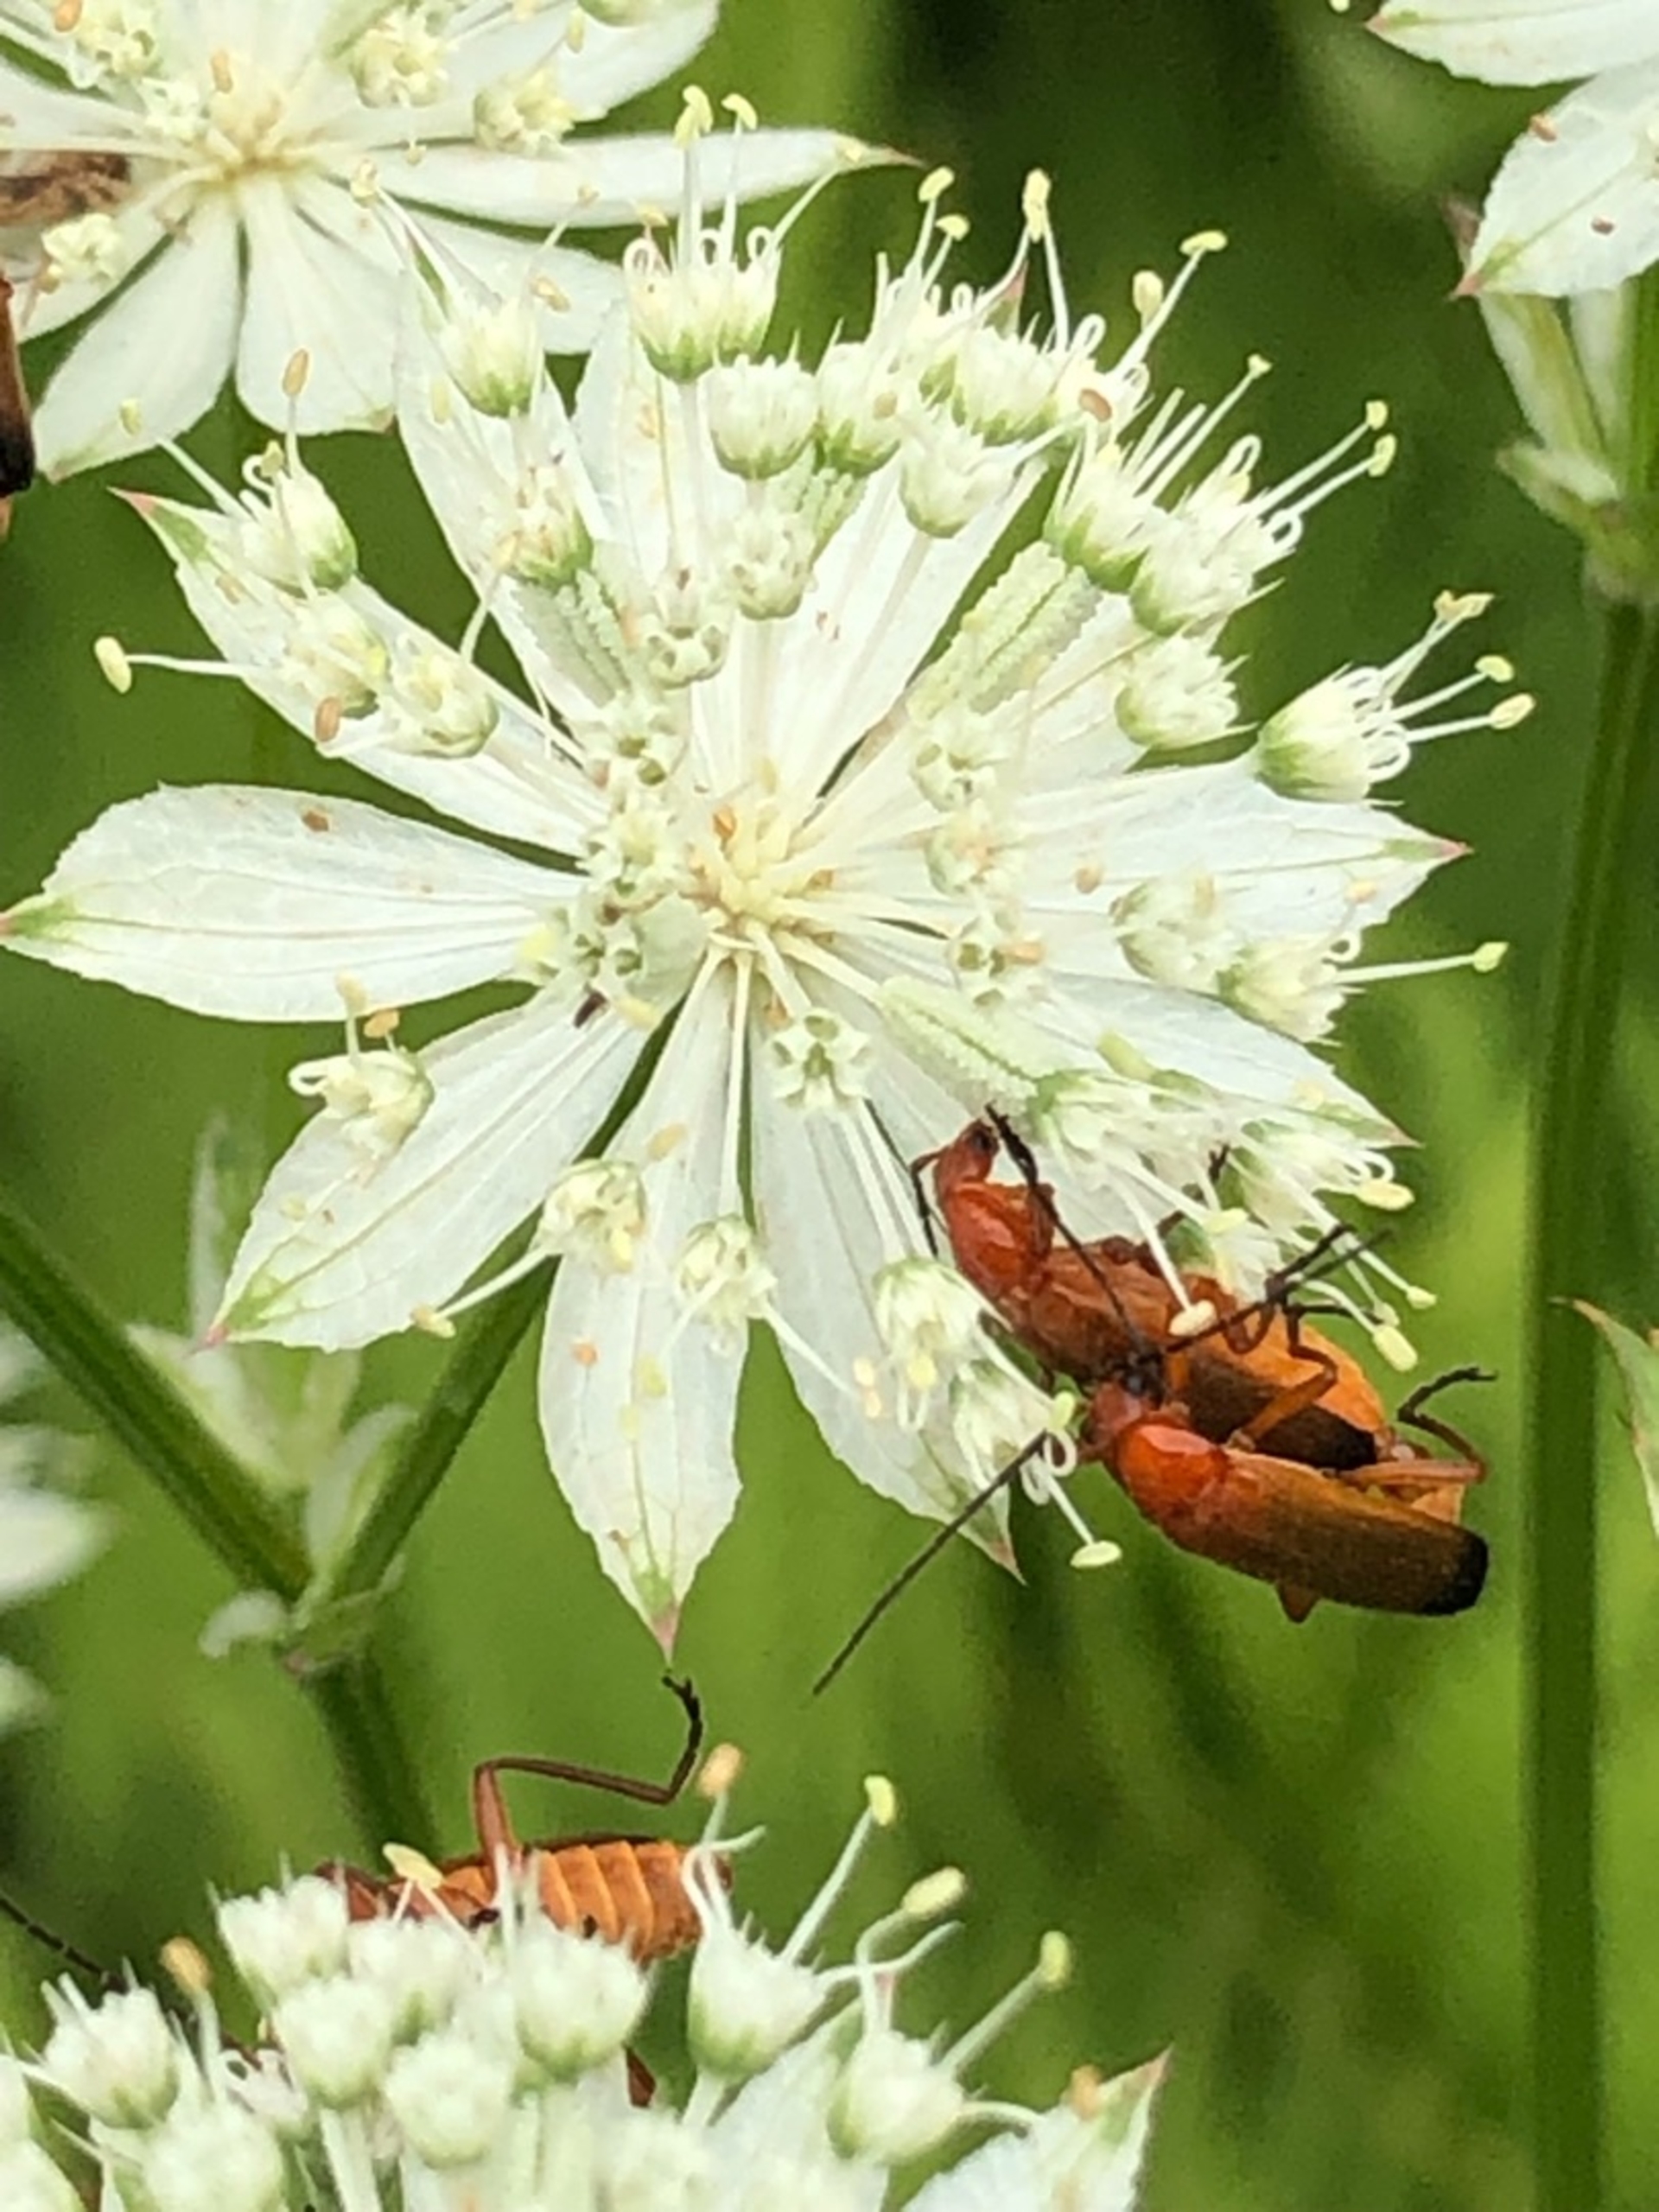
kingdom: Animalia
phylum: Arthropoda
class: Insecta
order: Coleoptera
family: Cantharidae
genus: Rhagonycha
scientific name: Rhagonycha fulva
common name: Præstebille
